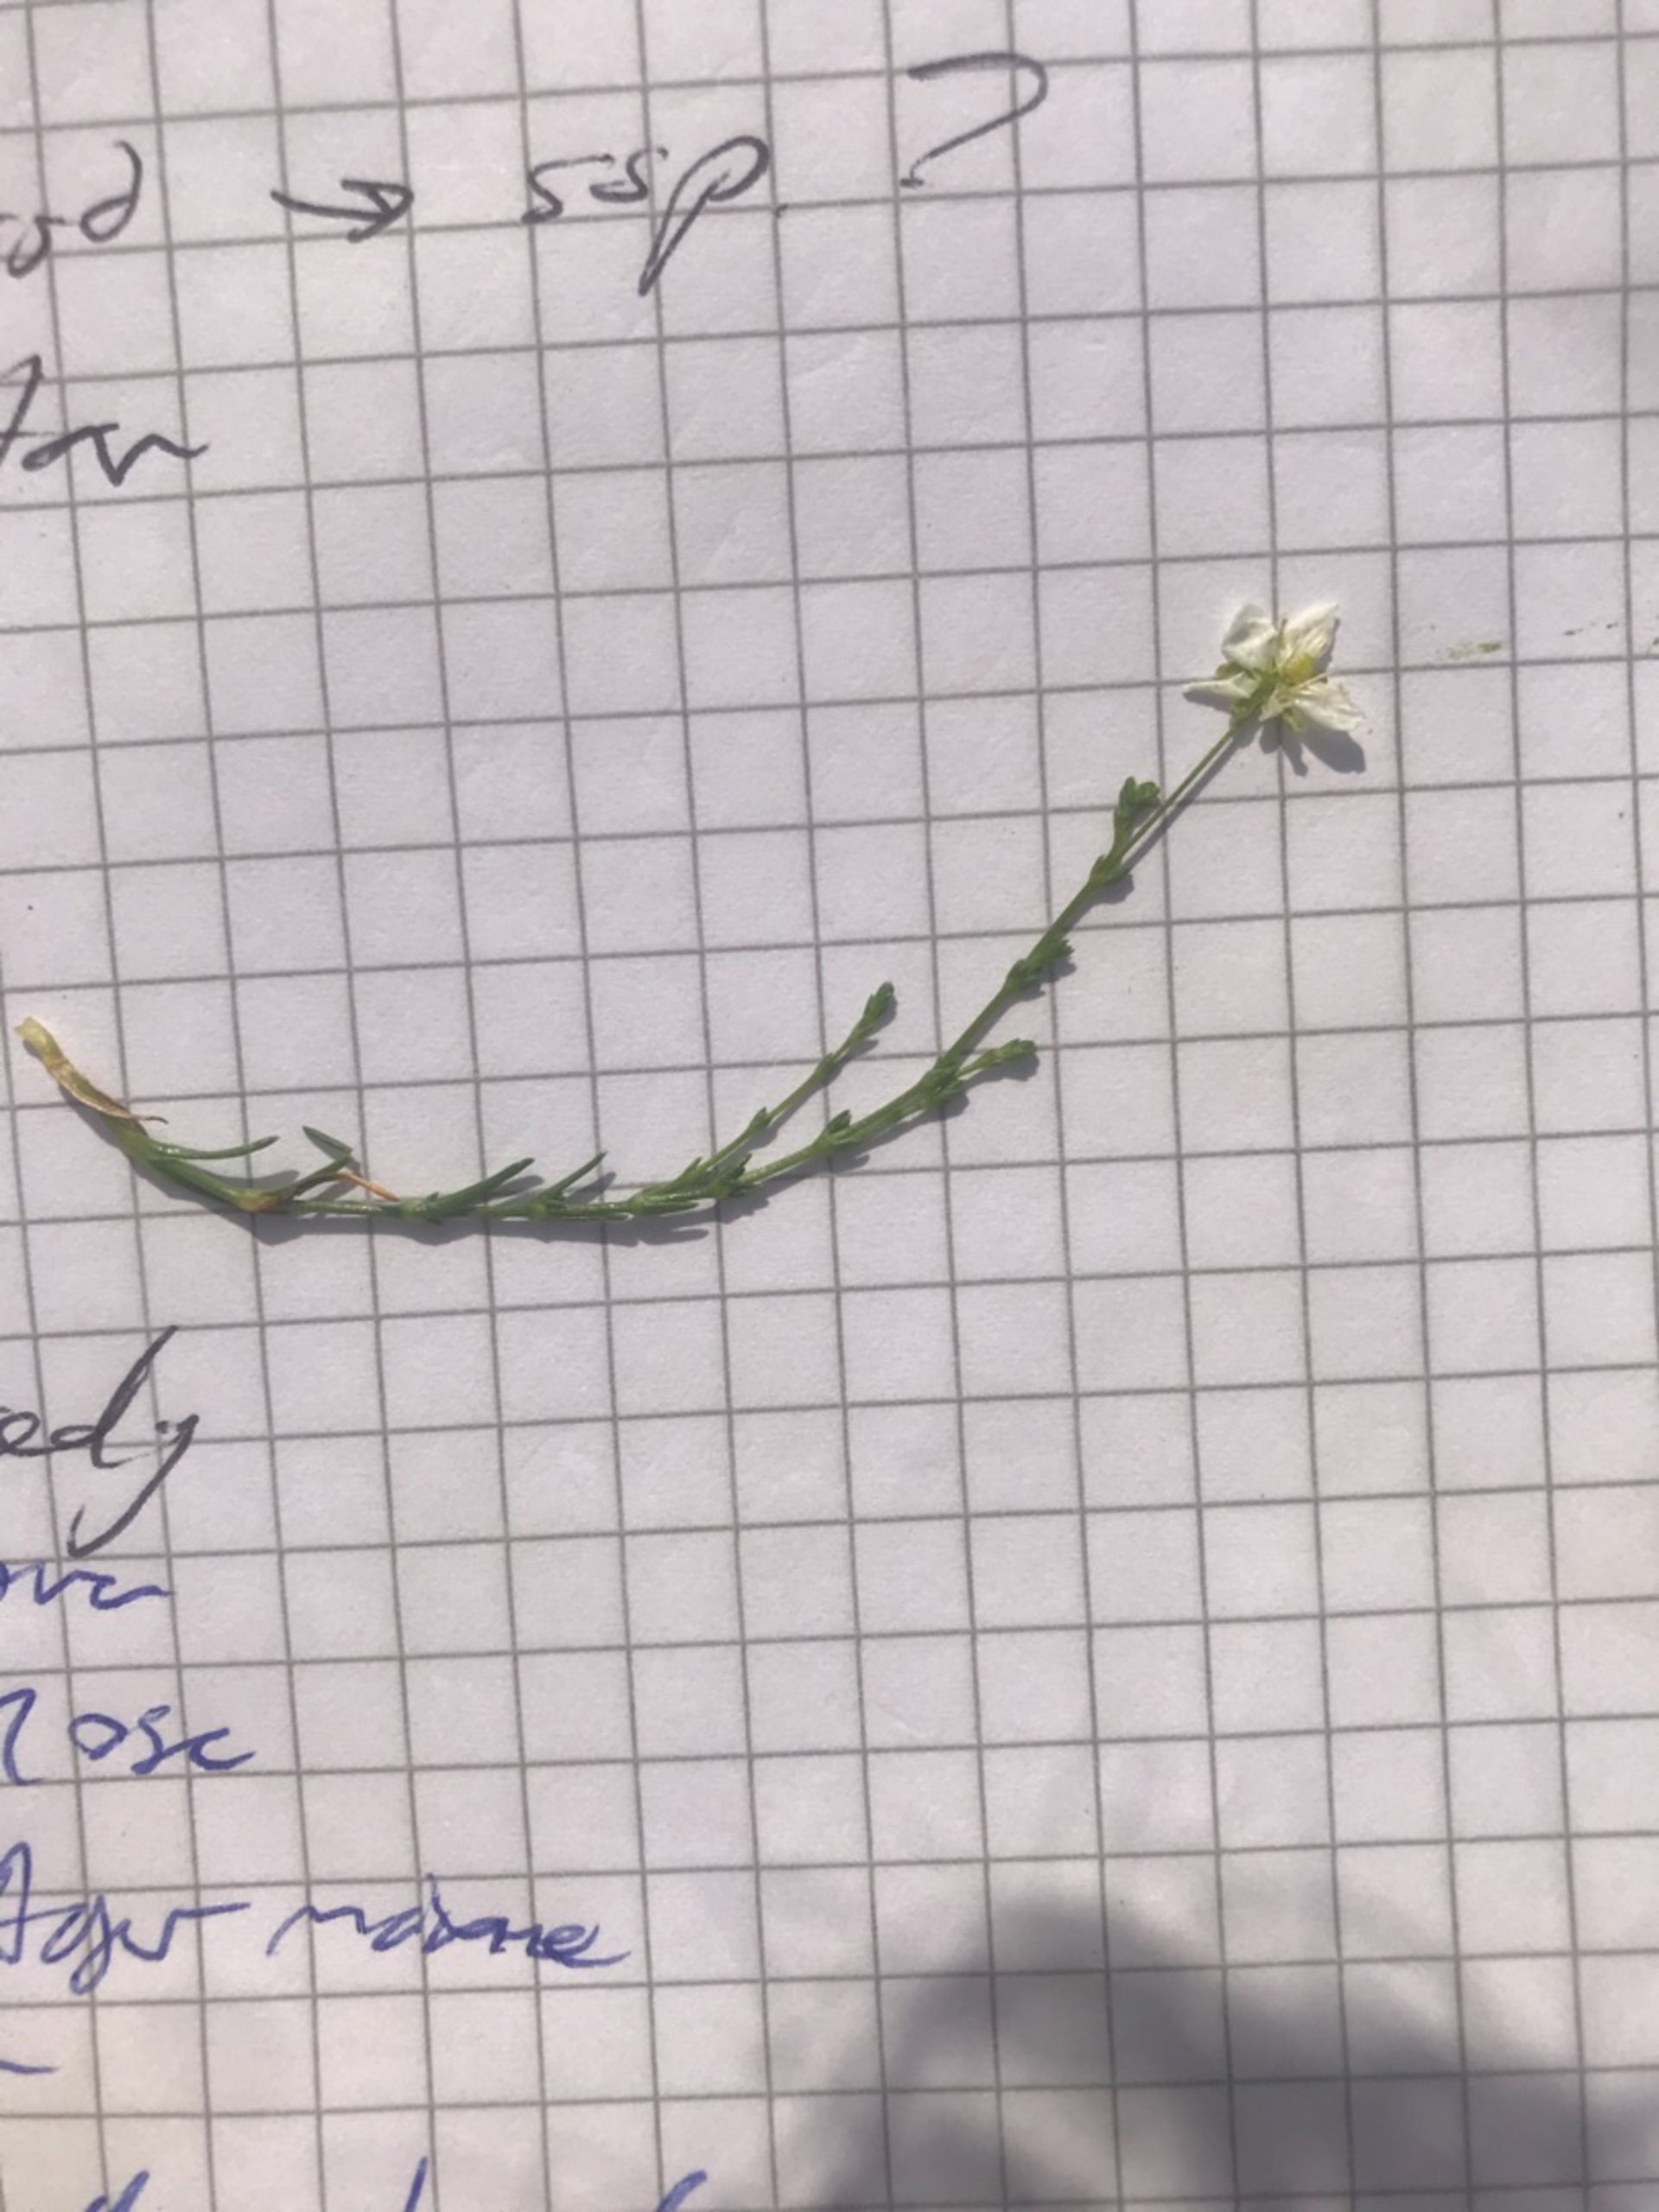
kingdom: Plantae
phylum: Tracheophyta
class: Magnoliopsida
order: Caryophyllales
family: Caryophyllaceae
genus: Sagina
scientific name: Sagina nodosa
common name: Nordlig knude-firling
